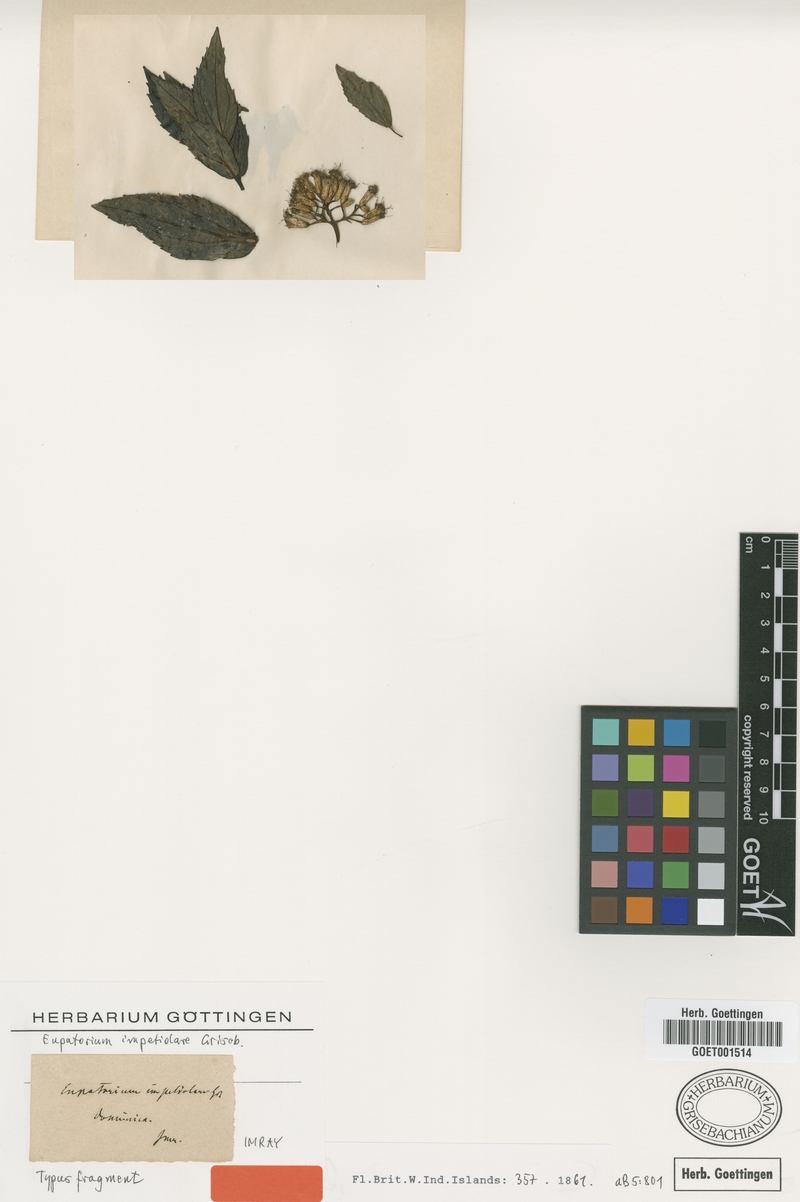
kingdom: Plantae
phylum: Tracheophyta
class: Magnoliopsida
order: Asterales
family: Asteraceae
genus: Chromolaena
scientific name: Chromolaena impetiolaris
